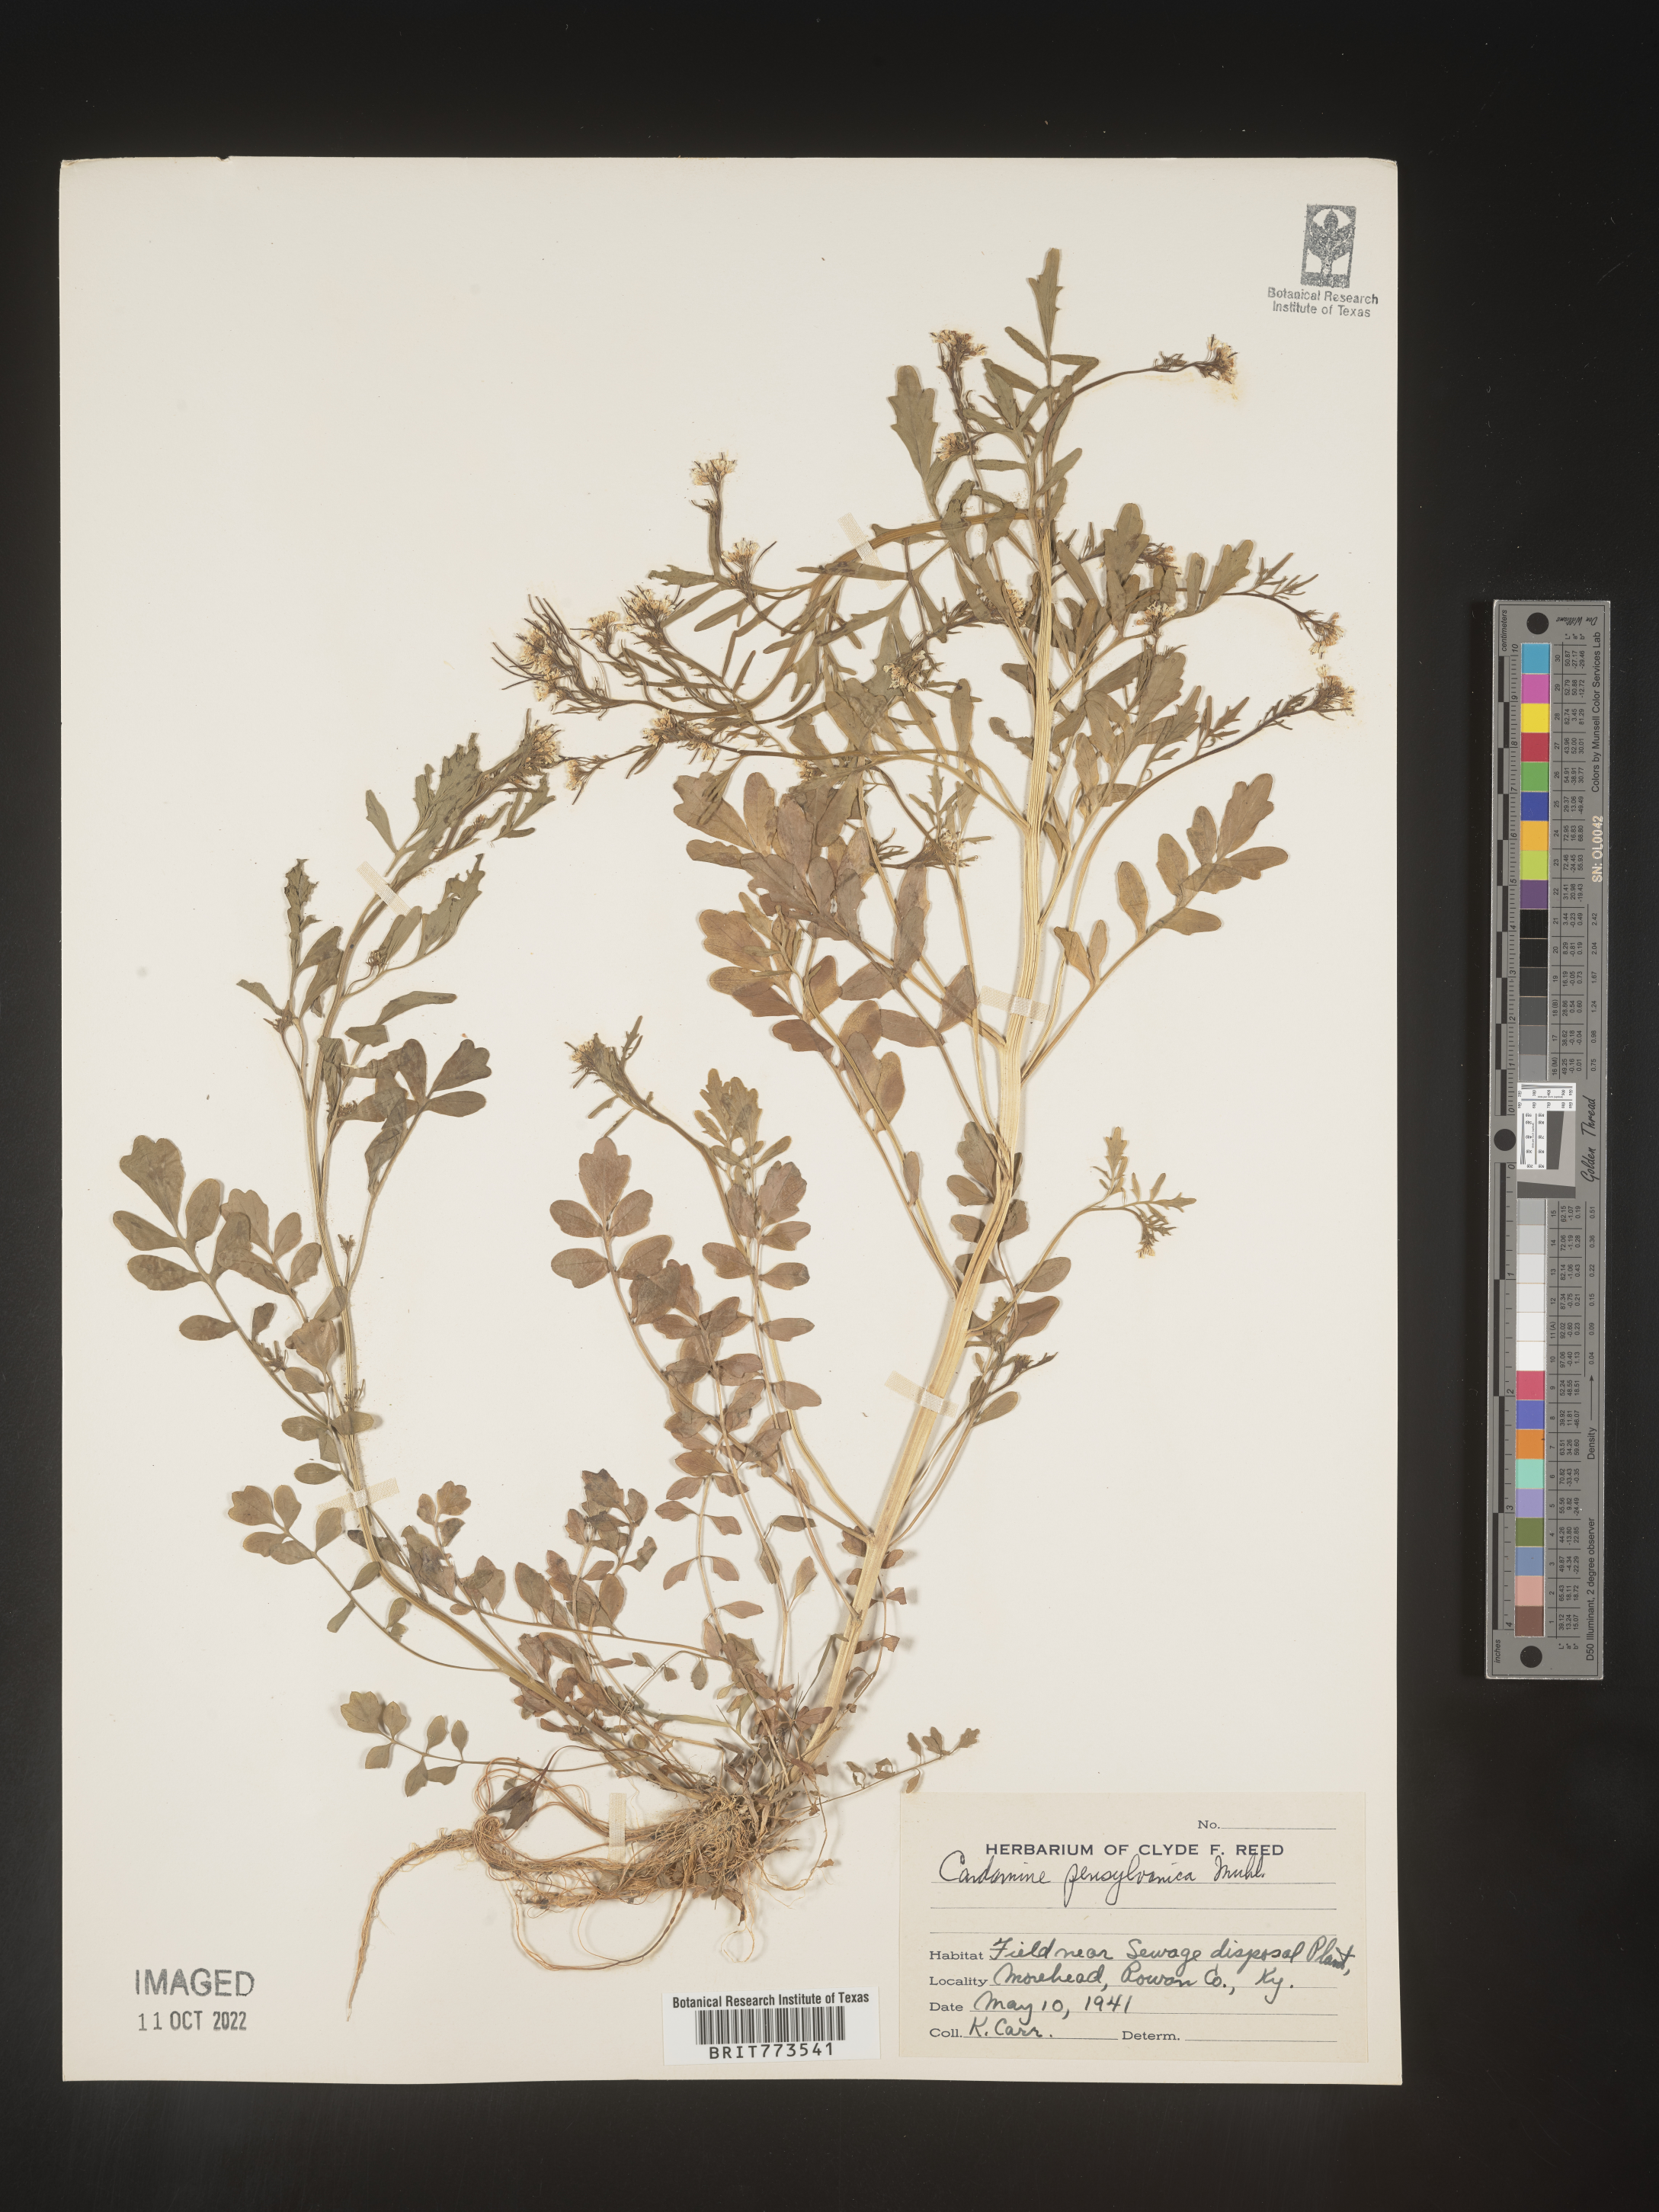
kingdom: Plantae
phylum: Tracheophyta
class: Magnoliopsida
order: Brassicales
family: Brassicaceae
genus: Cardamine
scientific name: Cardamine pensylvanica
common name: Pennsylvania bittercress
